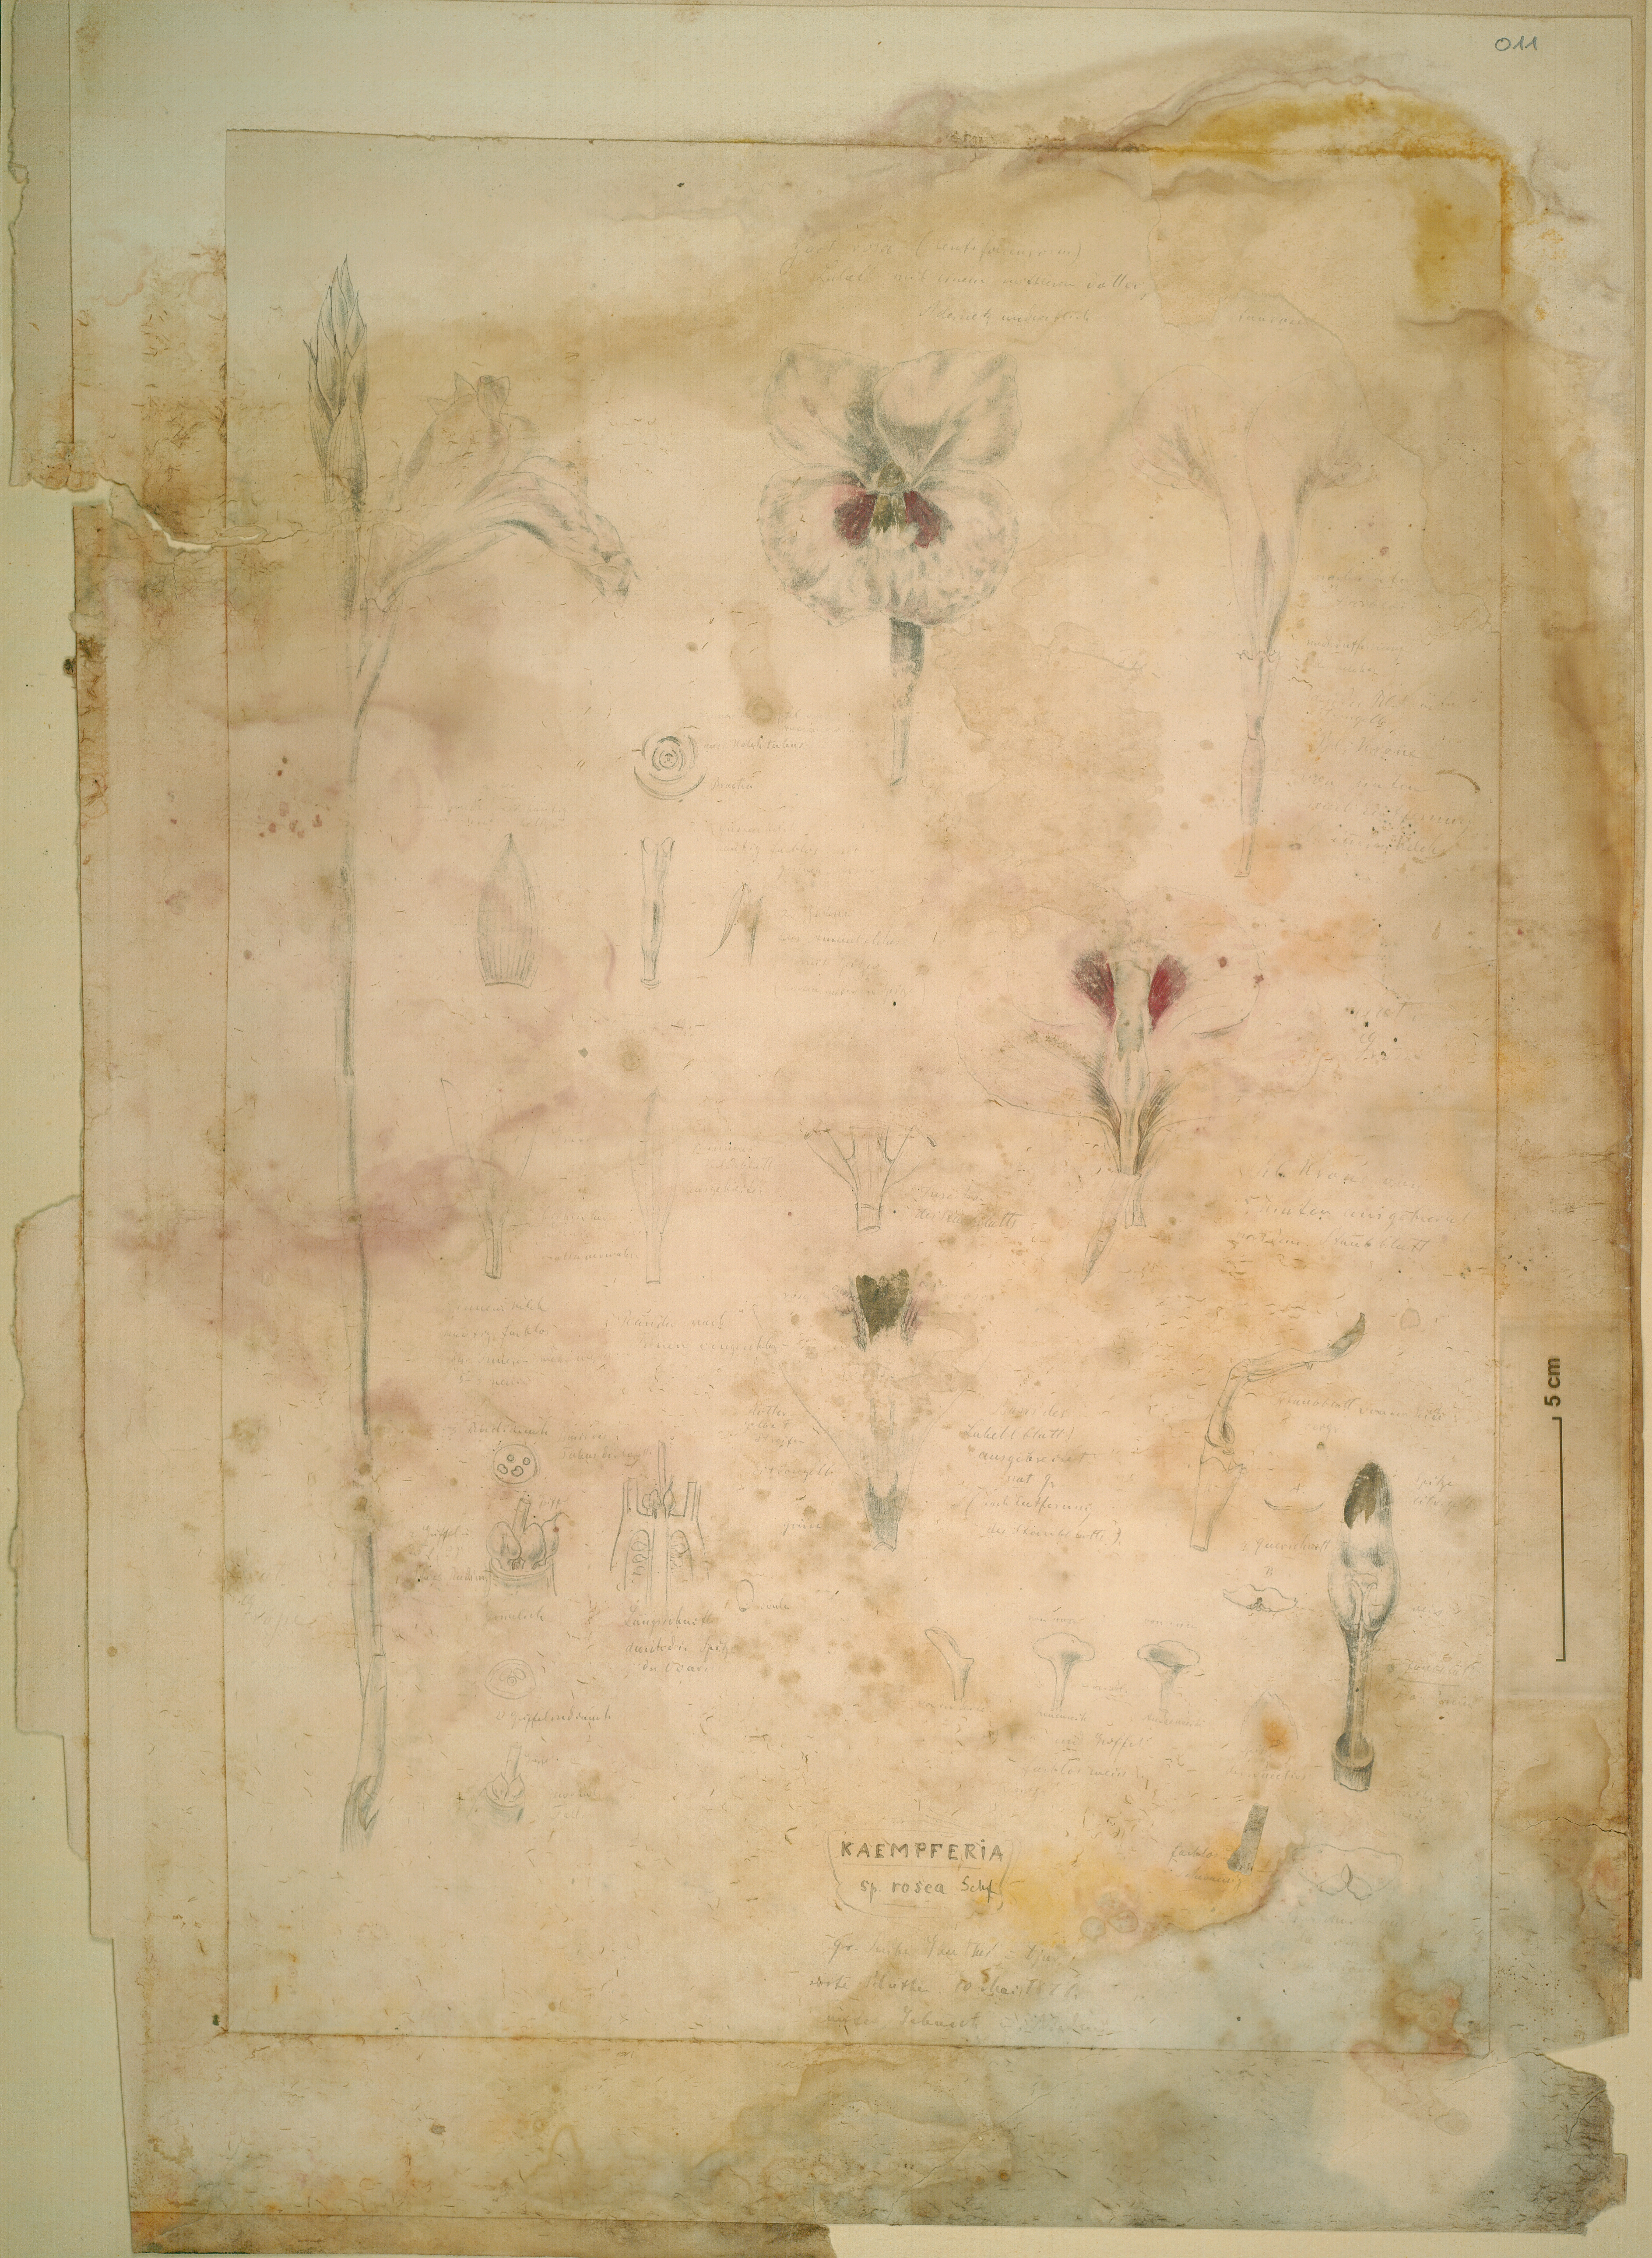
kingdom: Plantae
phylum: Tracheophyta
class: Liliopsida
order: Zingiberales
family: Zingiberaceae
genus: Siphonochilus
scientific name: Siphonochilus kirkii
